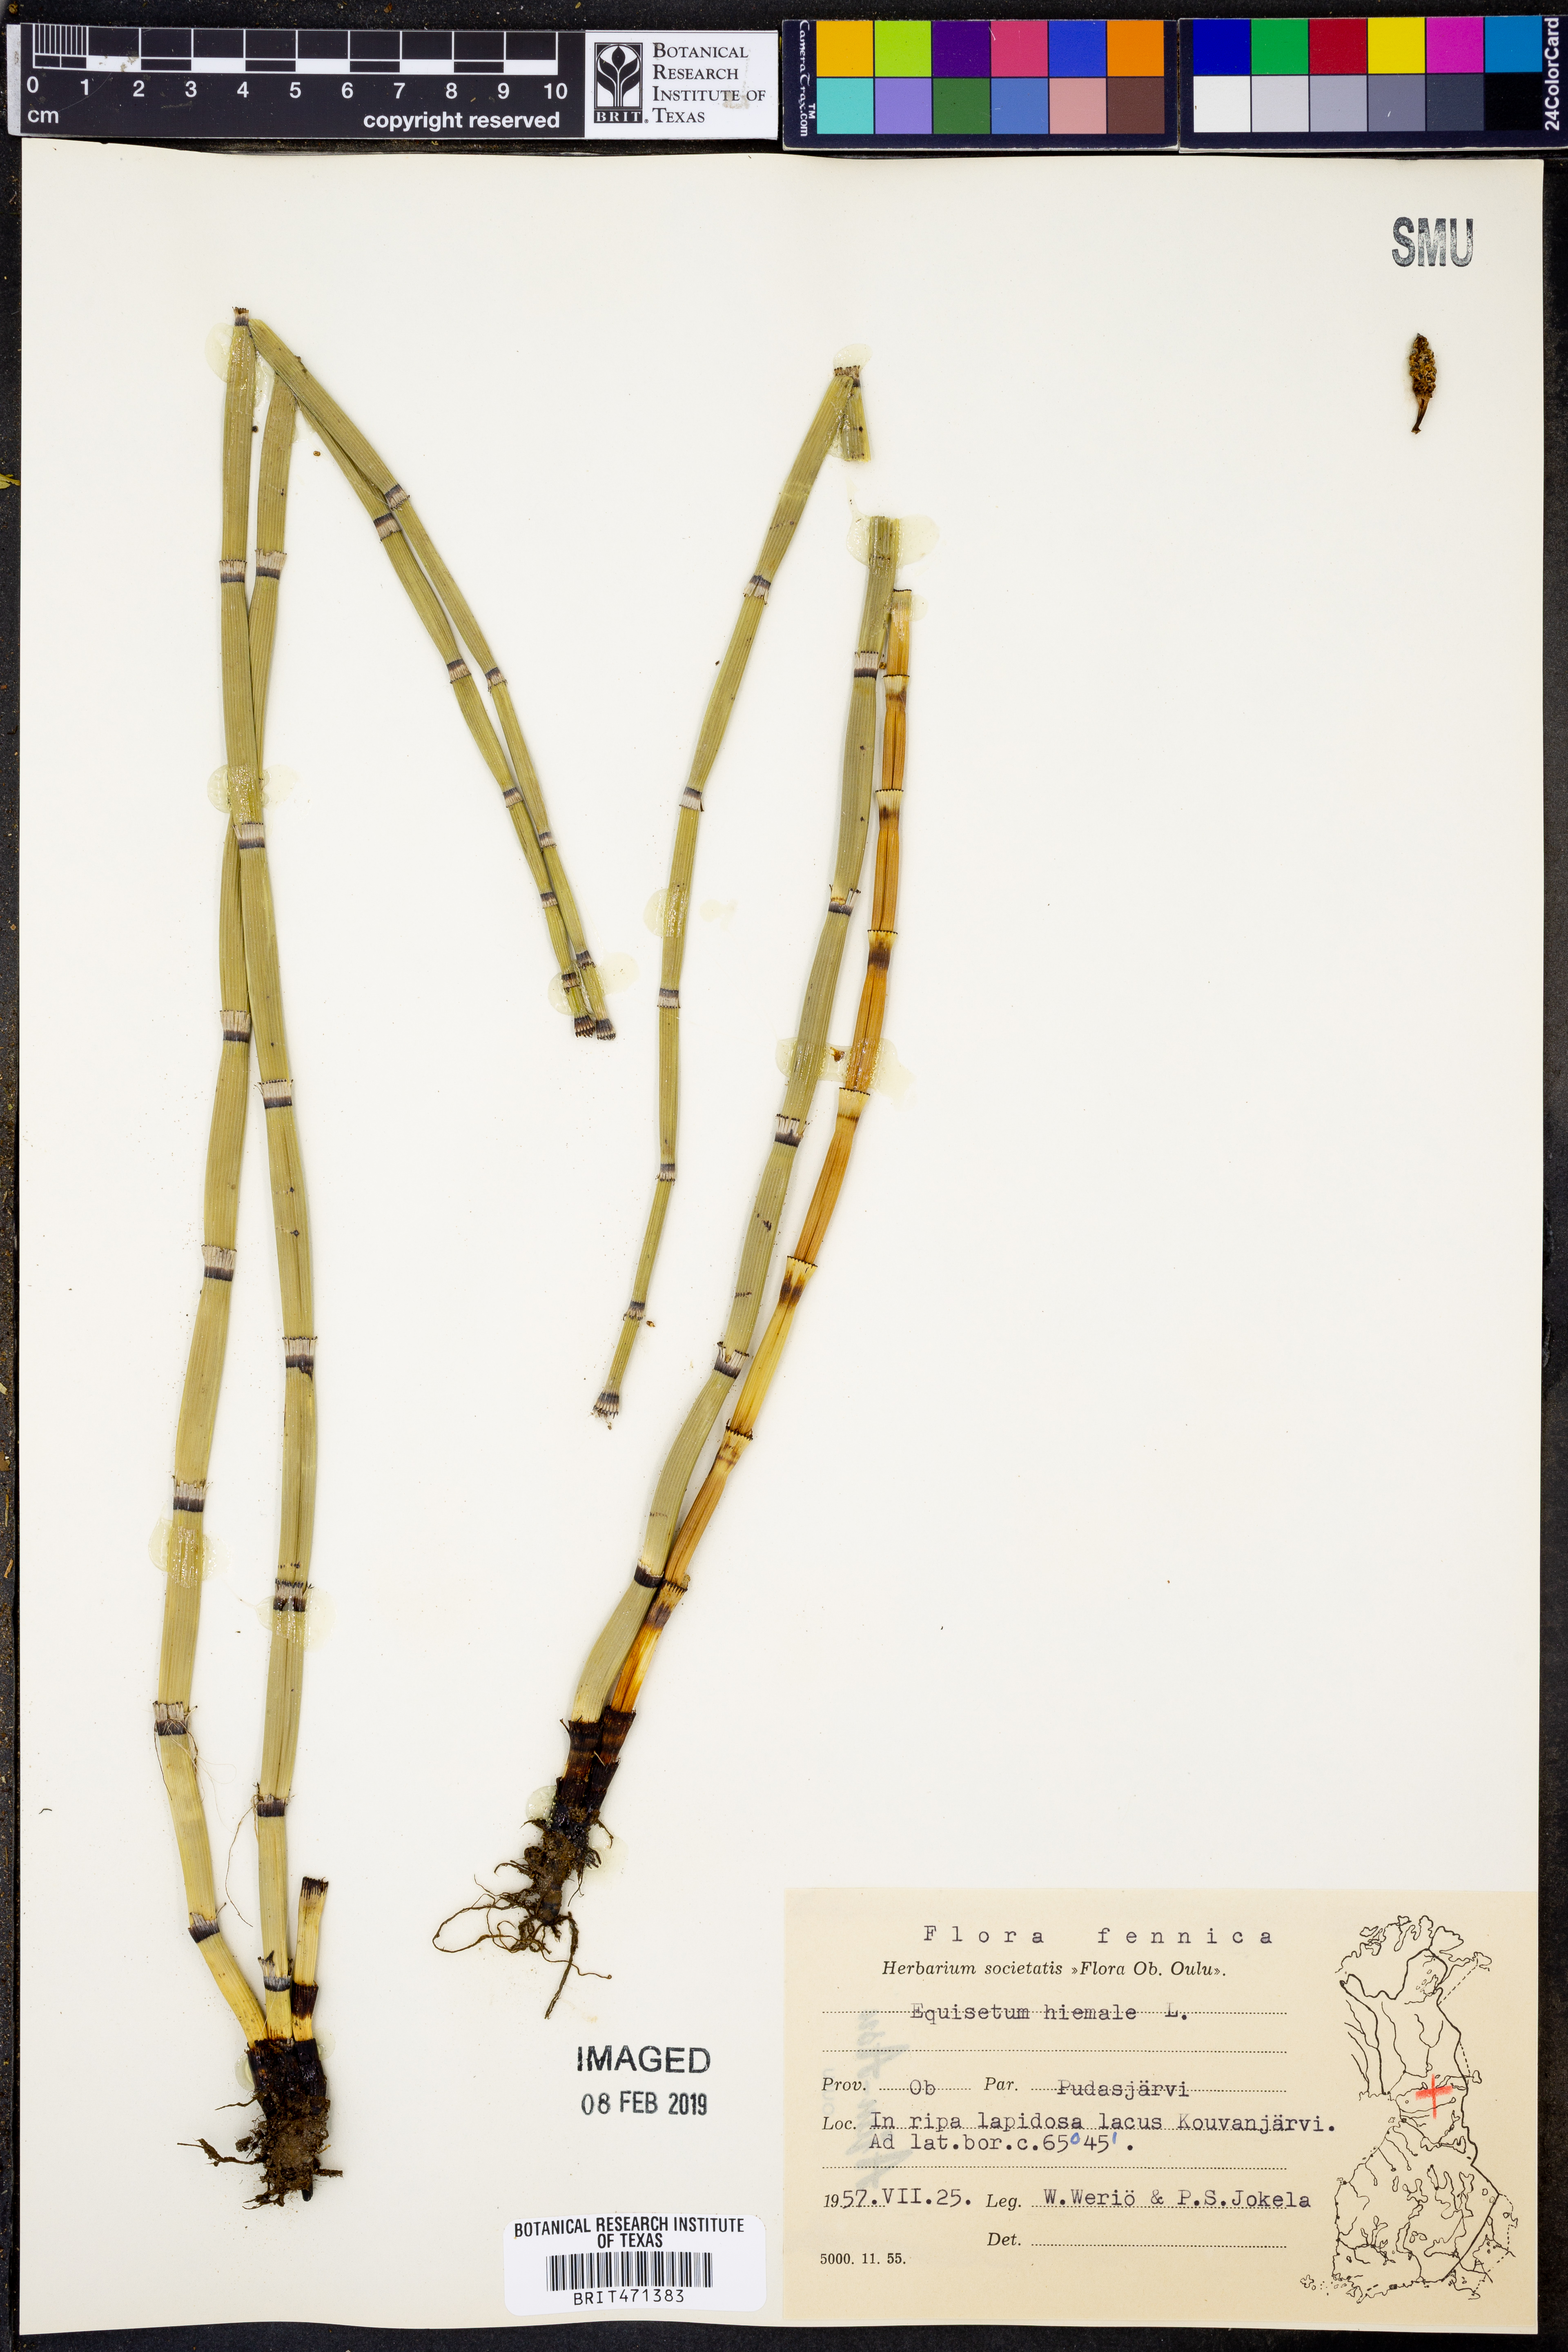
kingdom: Plantae
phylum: Tracheophyta
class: Polypodiopsida
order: Equisetales
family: Equisetaceae
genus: Equisetum
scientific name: Equisetum hyemale
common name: Rough horsetail
